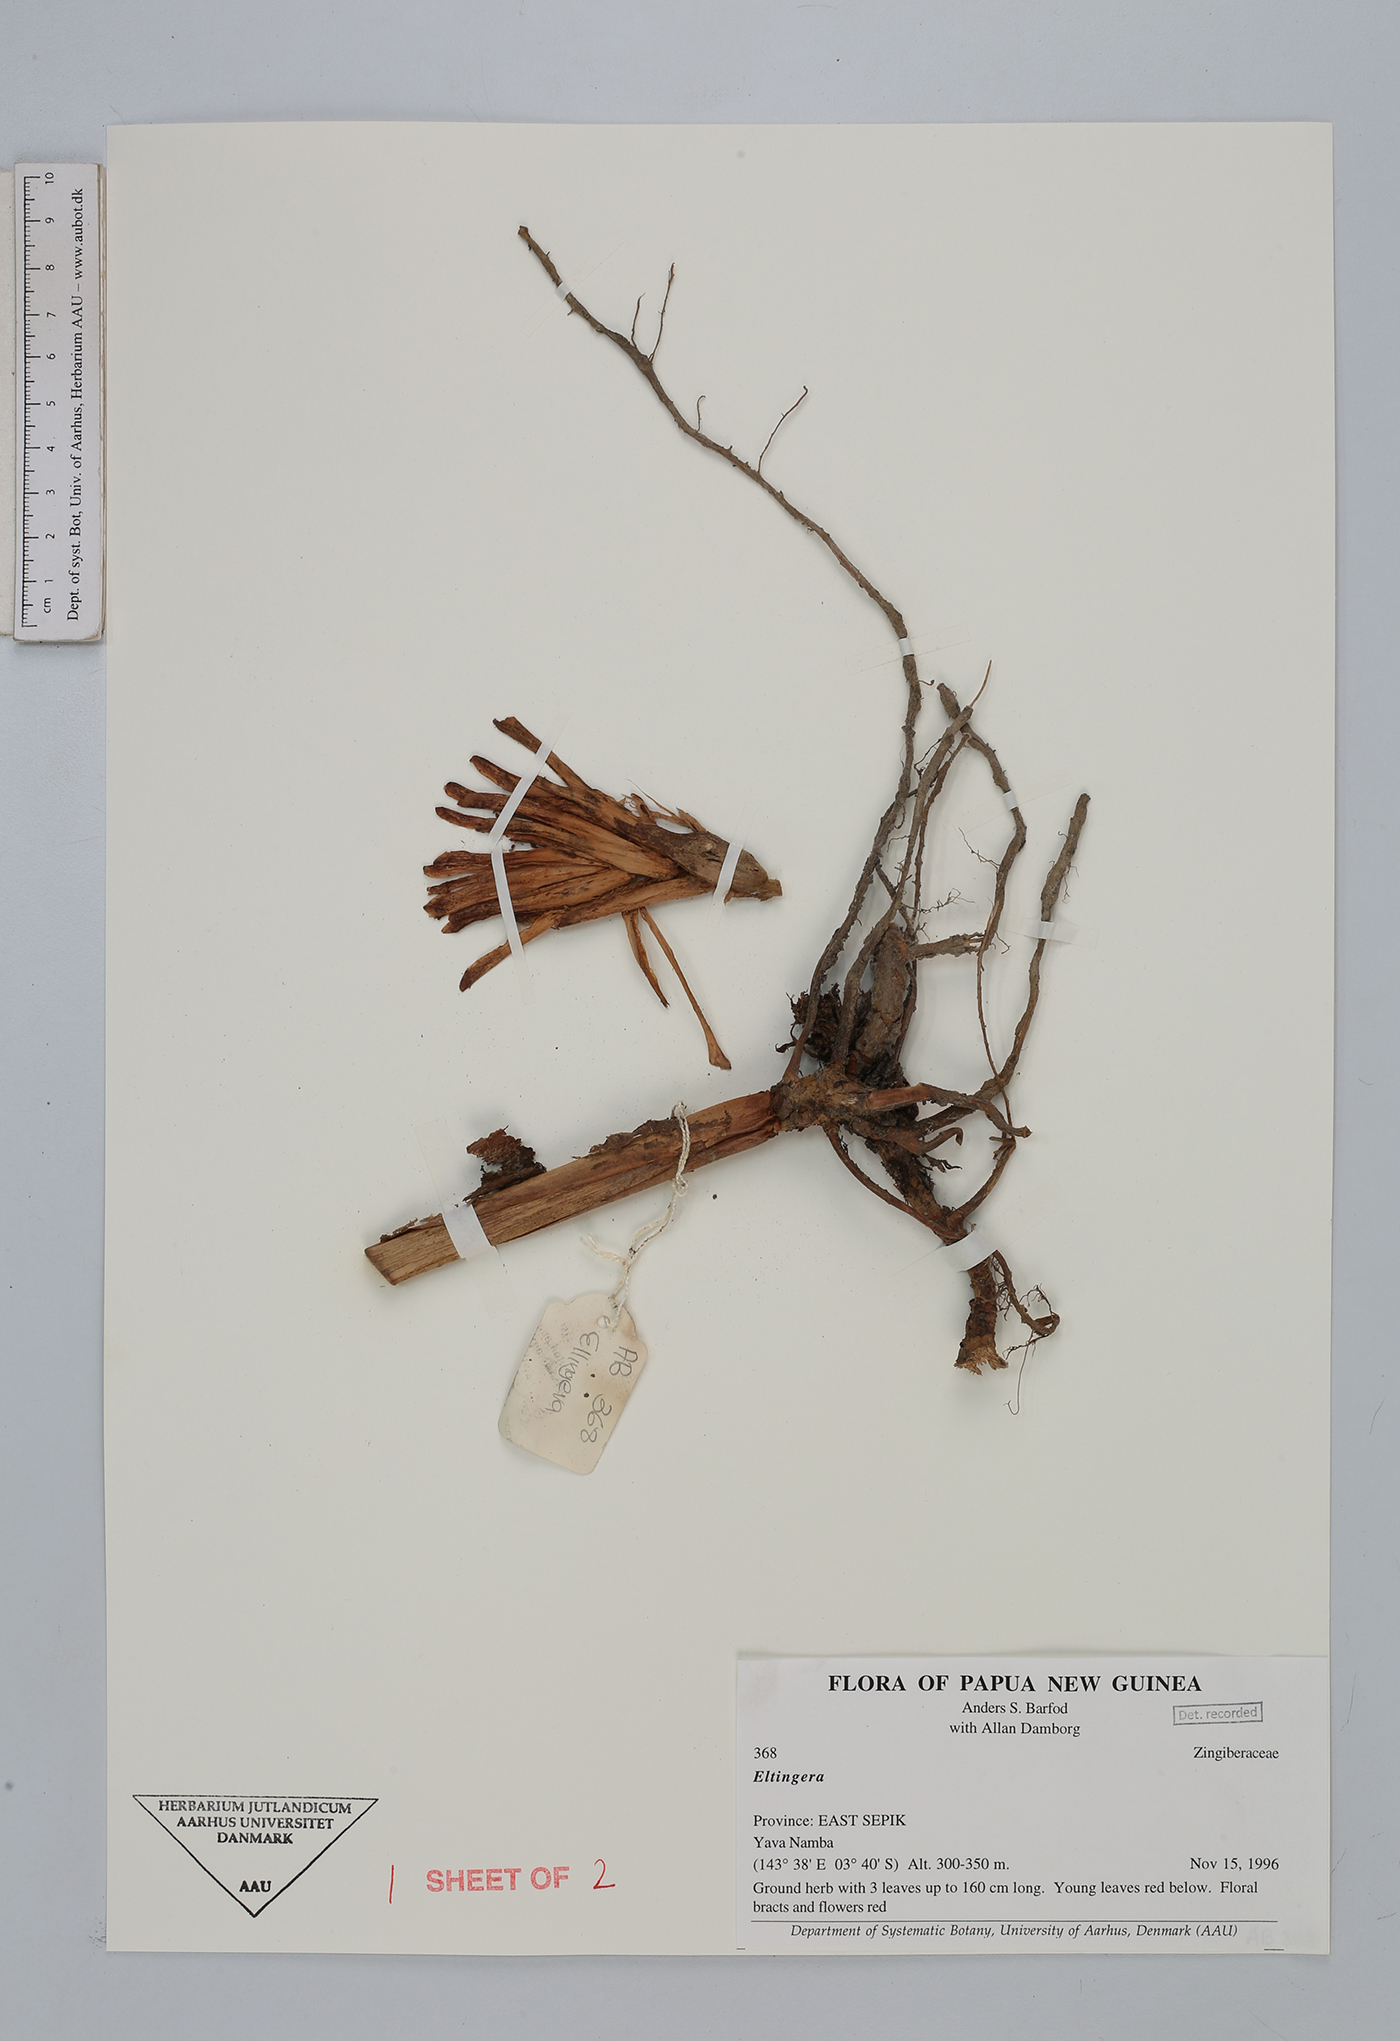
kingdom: Plantae
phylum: Tracheophyta
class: Liliopsida
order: Zingiberales
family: Zingiberaceae
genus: Etlingera
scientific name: Etlingera
